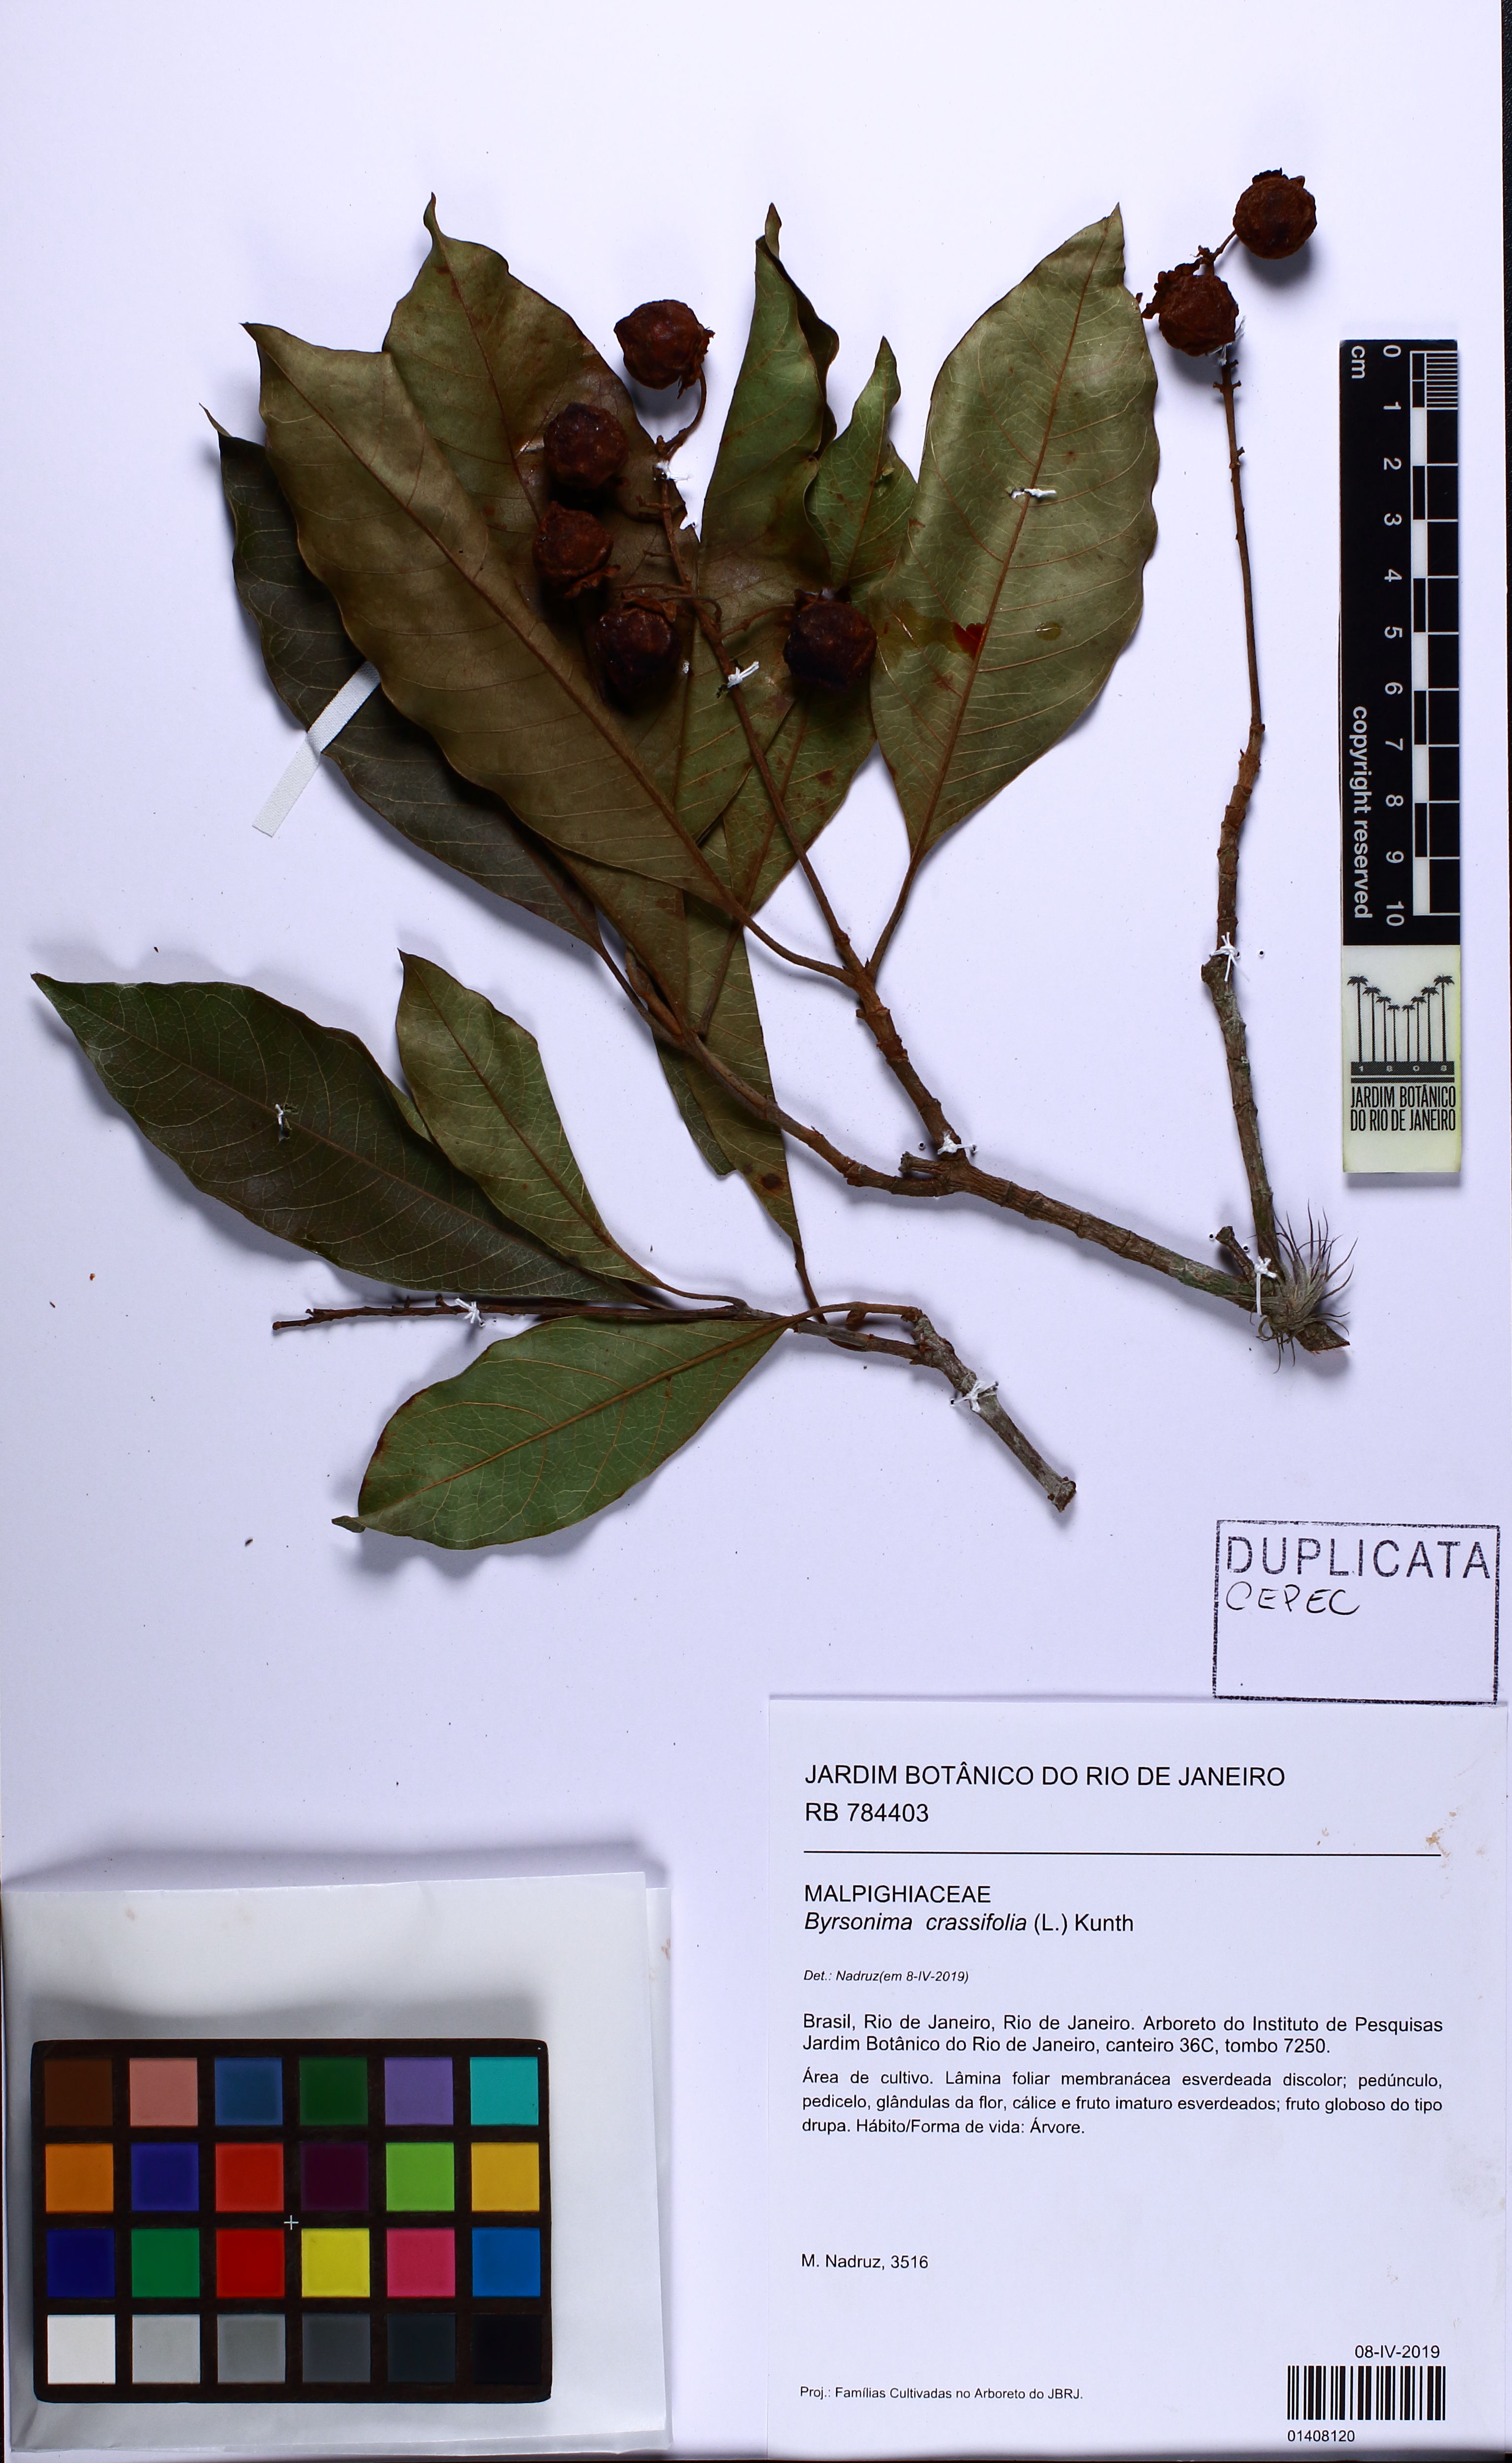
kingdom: Plantae
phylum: Tracheophyta
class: Magnoliopsida
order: Malpighiales
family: Malpighiaceae
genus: Byrsonima
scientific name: Byrsonima crassifolia
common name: Golden spoon
